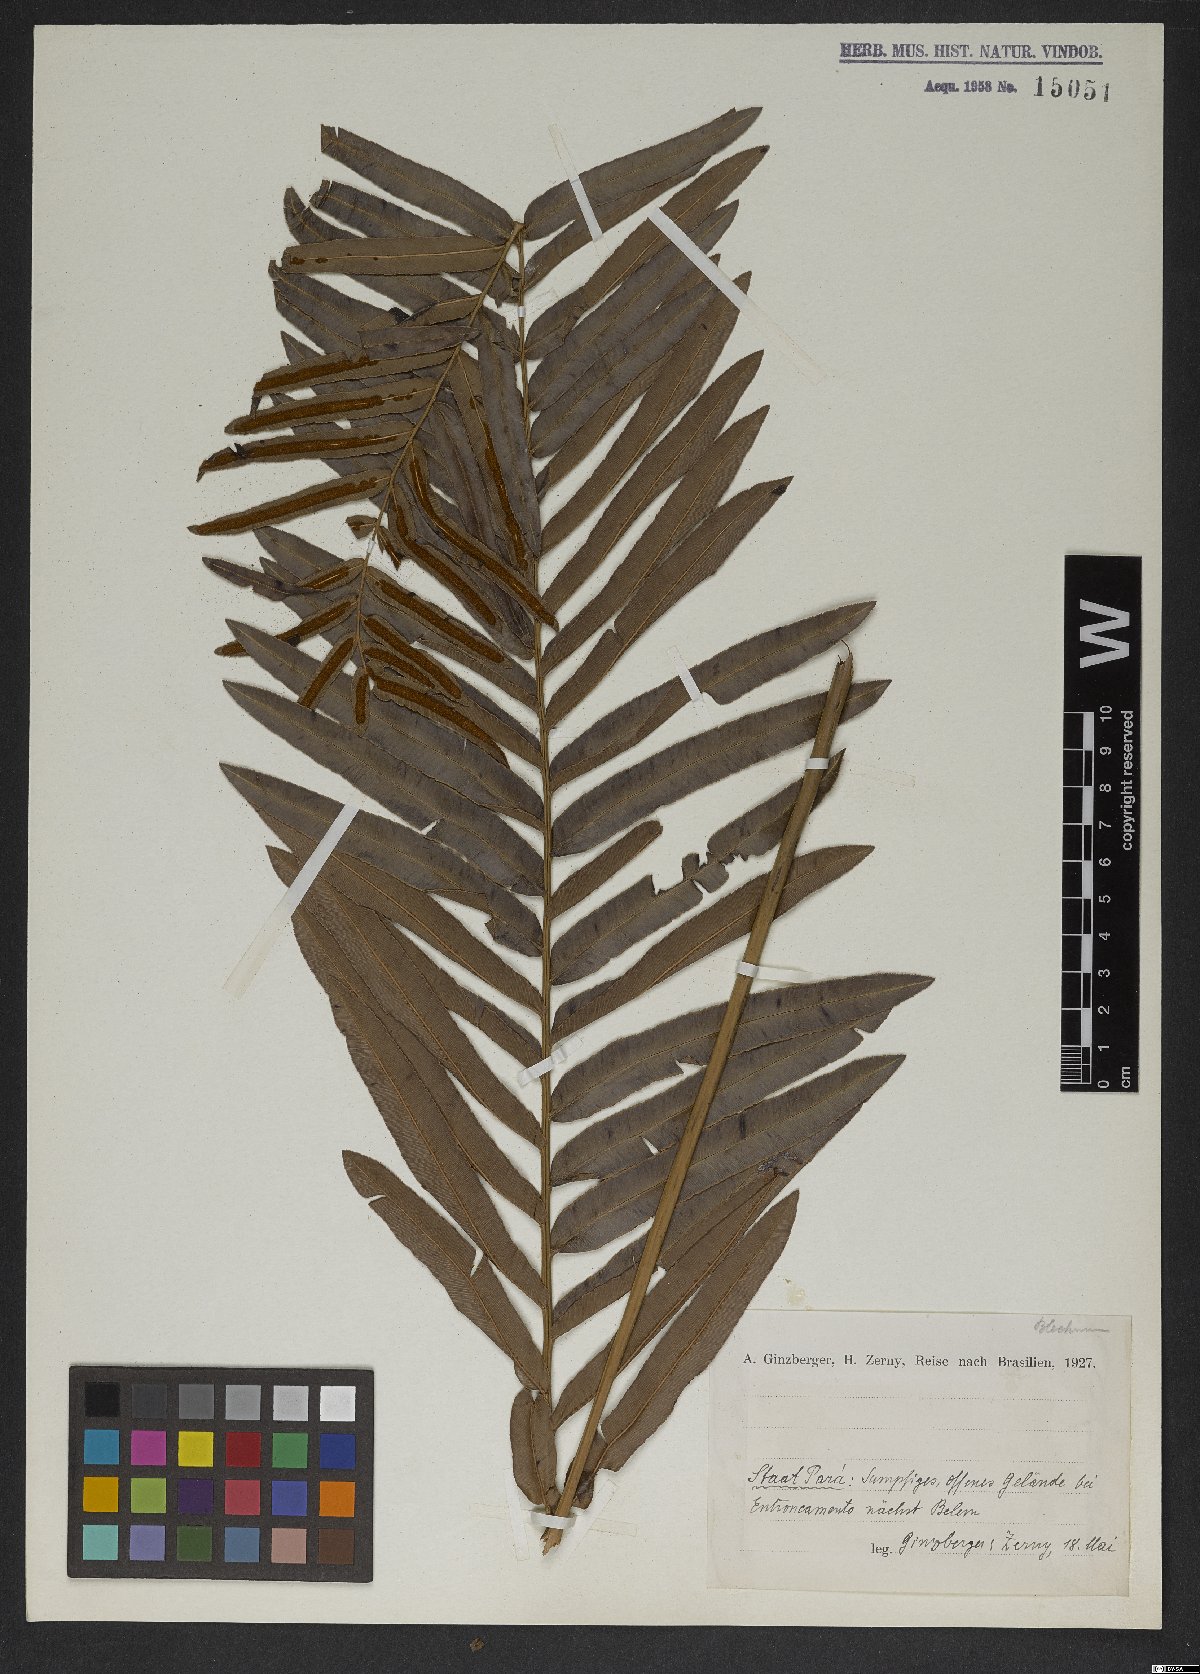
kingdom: Plantae
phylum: Tracheophyta
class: Polypodiopsida
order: Polypodiales
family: Blechnaceae
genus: Blechnum
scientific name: Blechnum
